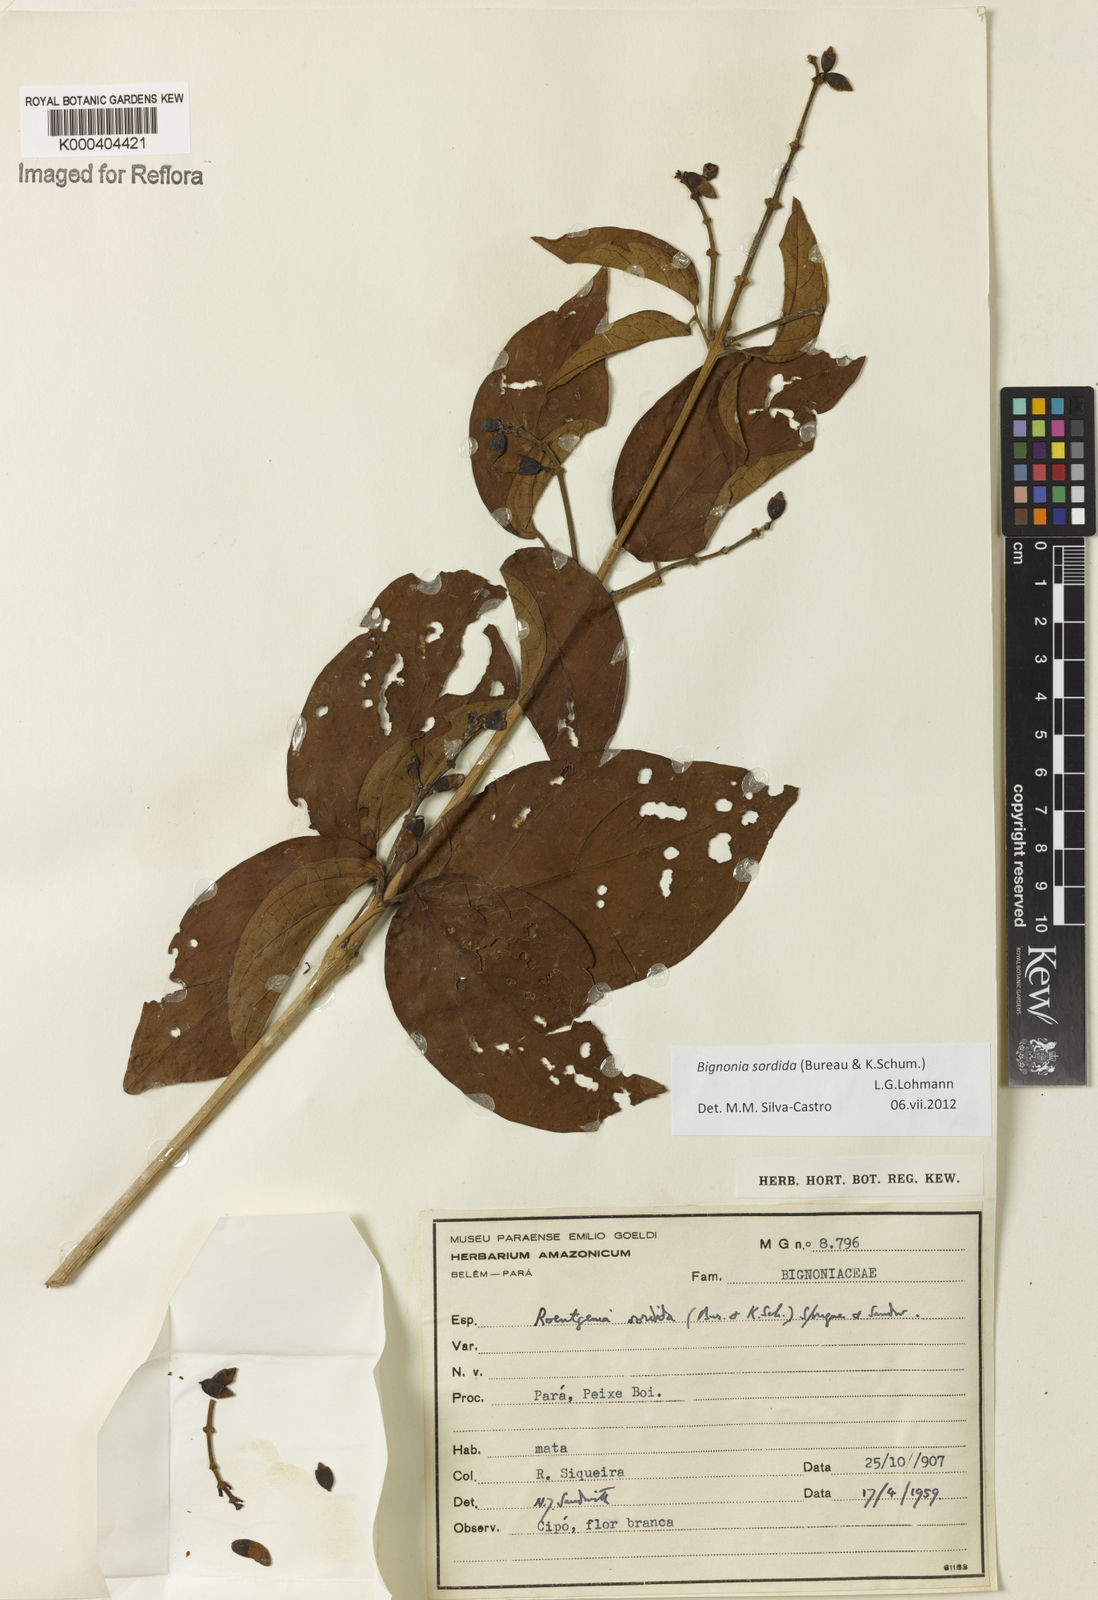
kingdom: Plantae
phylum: Tracheophyta
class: Magnoliopsida
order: Lamiales
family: Bignoniaceae
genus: Bignonia
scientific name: Bignonia sordida
